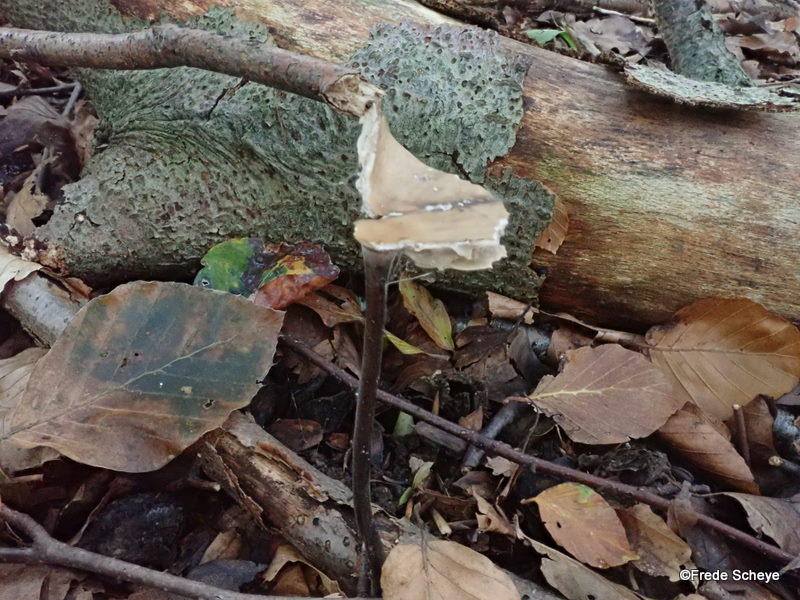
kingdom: Fungi
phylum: Basidiomycota
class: Agaricomycetes
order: Agaricales
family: Omphalotaceae
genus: Mycetinis
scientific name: Mycetinis alliaceus
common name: stor løghat
